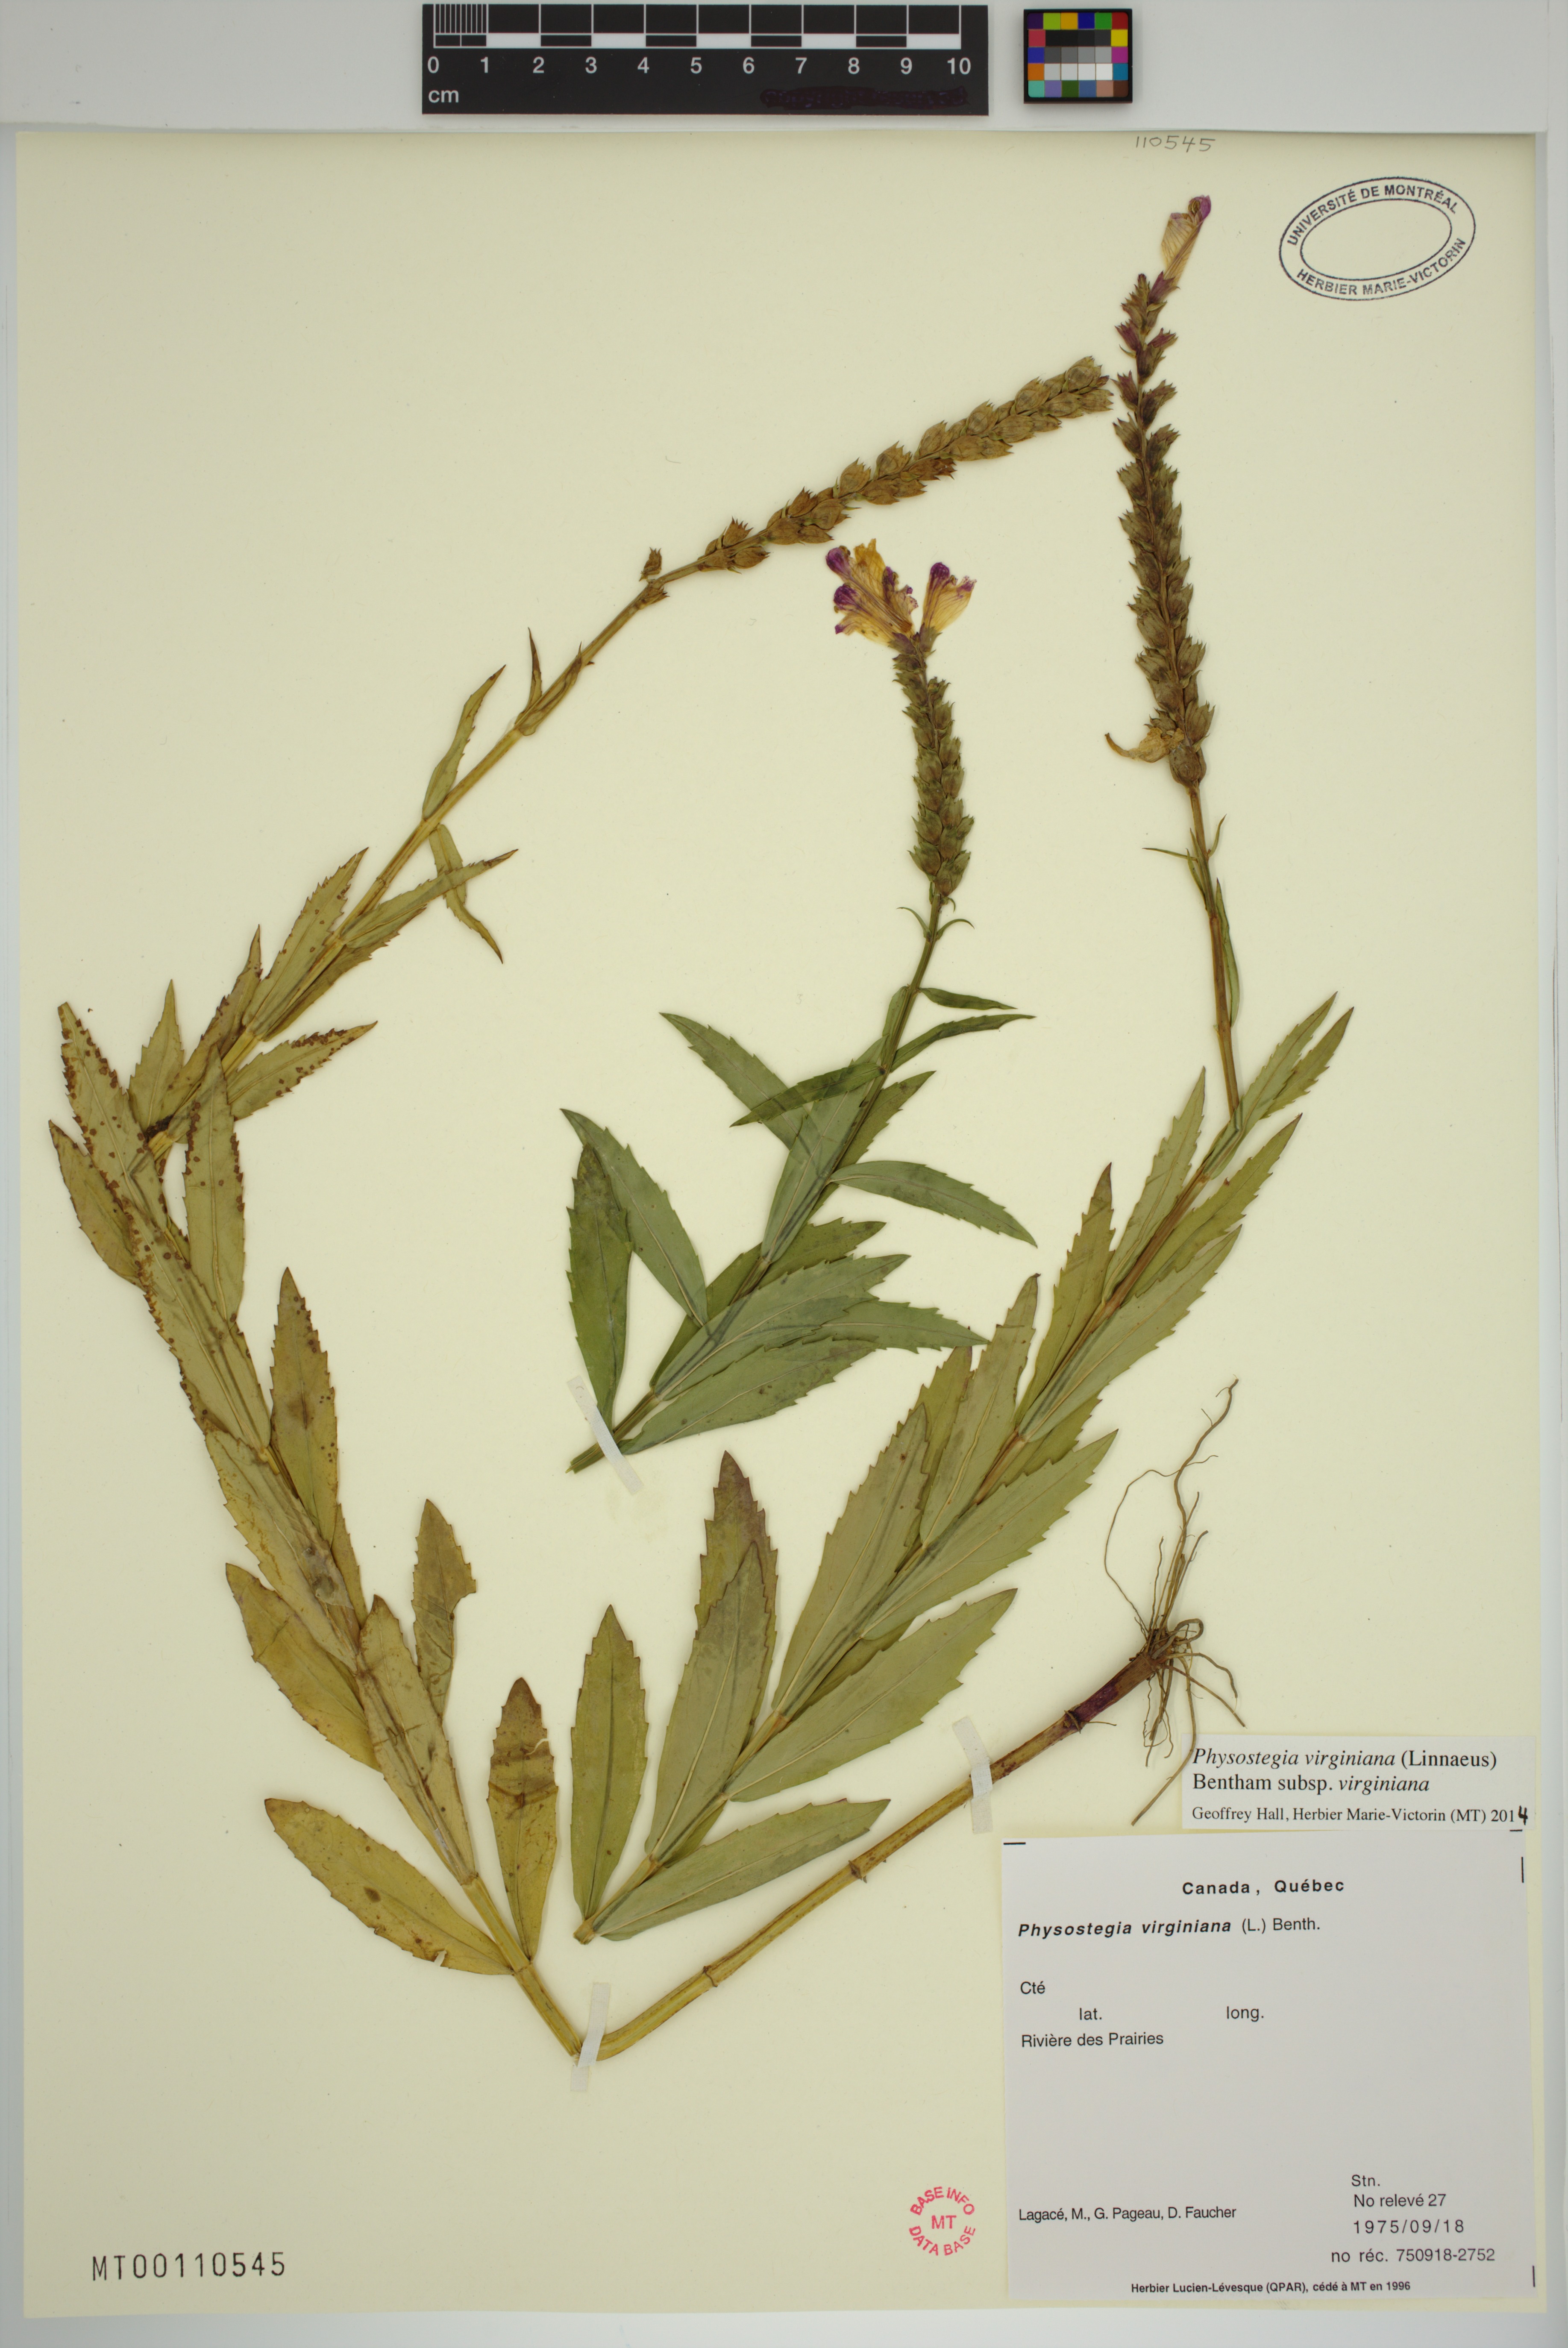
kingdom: Plantae
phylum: Tracheophyta
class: Magnoliopsida
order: Lamiales
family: Lamiaceae
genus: Physostegia
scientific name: Physostegia virginiana
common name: Obedient-plant
